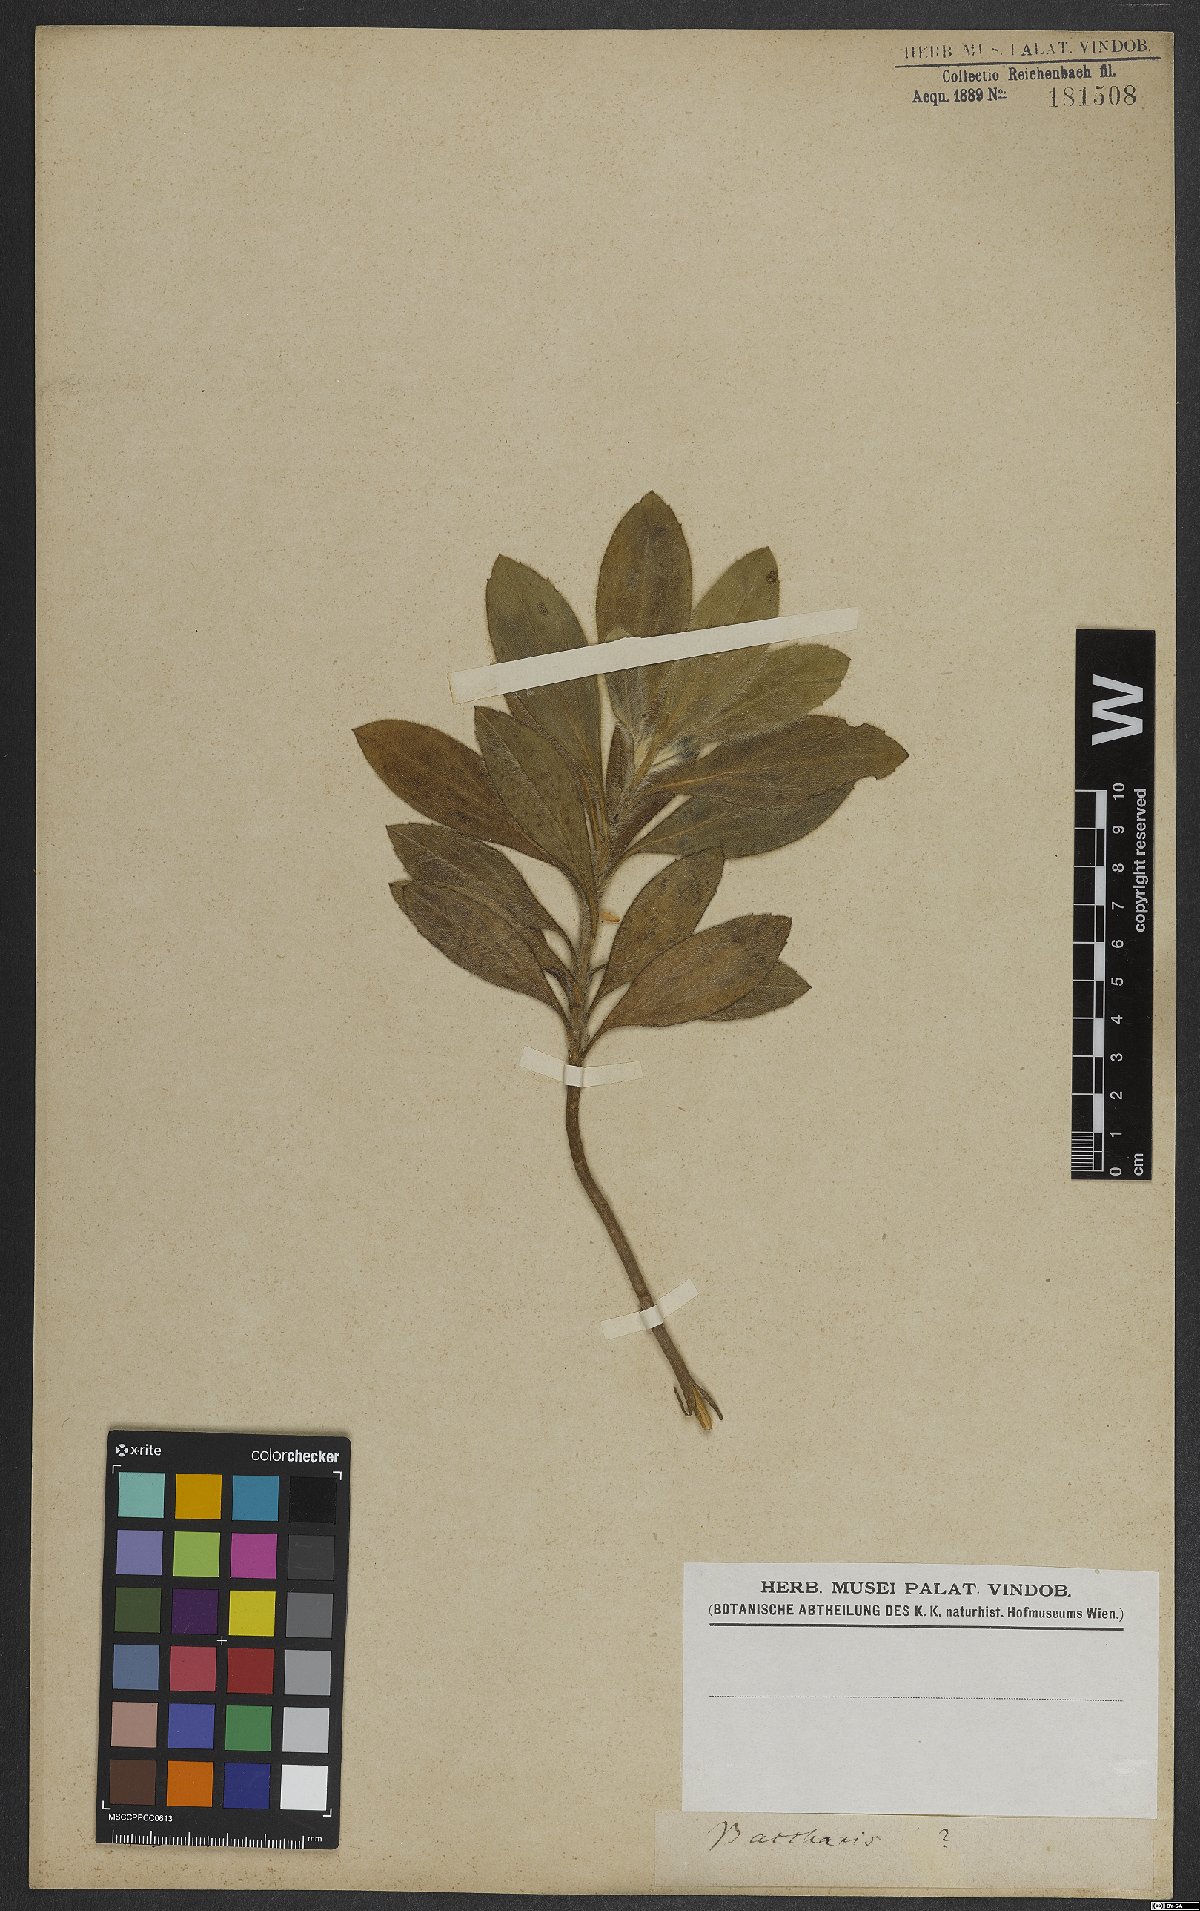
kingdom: Plantae
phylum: Tracheophyta
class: Magnoliopsida
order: Asterales
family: Asteraceae
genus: Baccharis
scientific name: Baccharis
